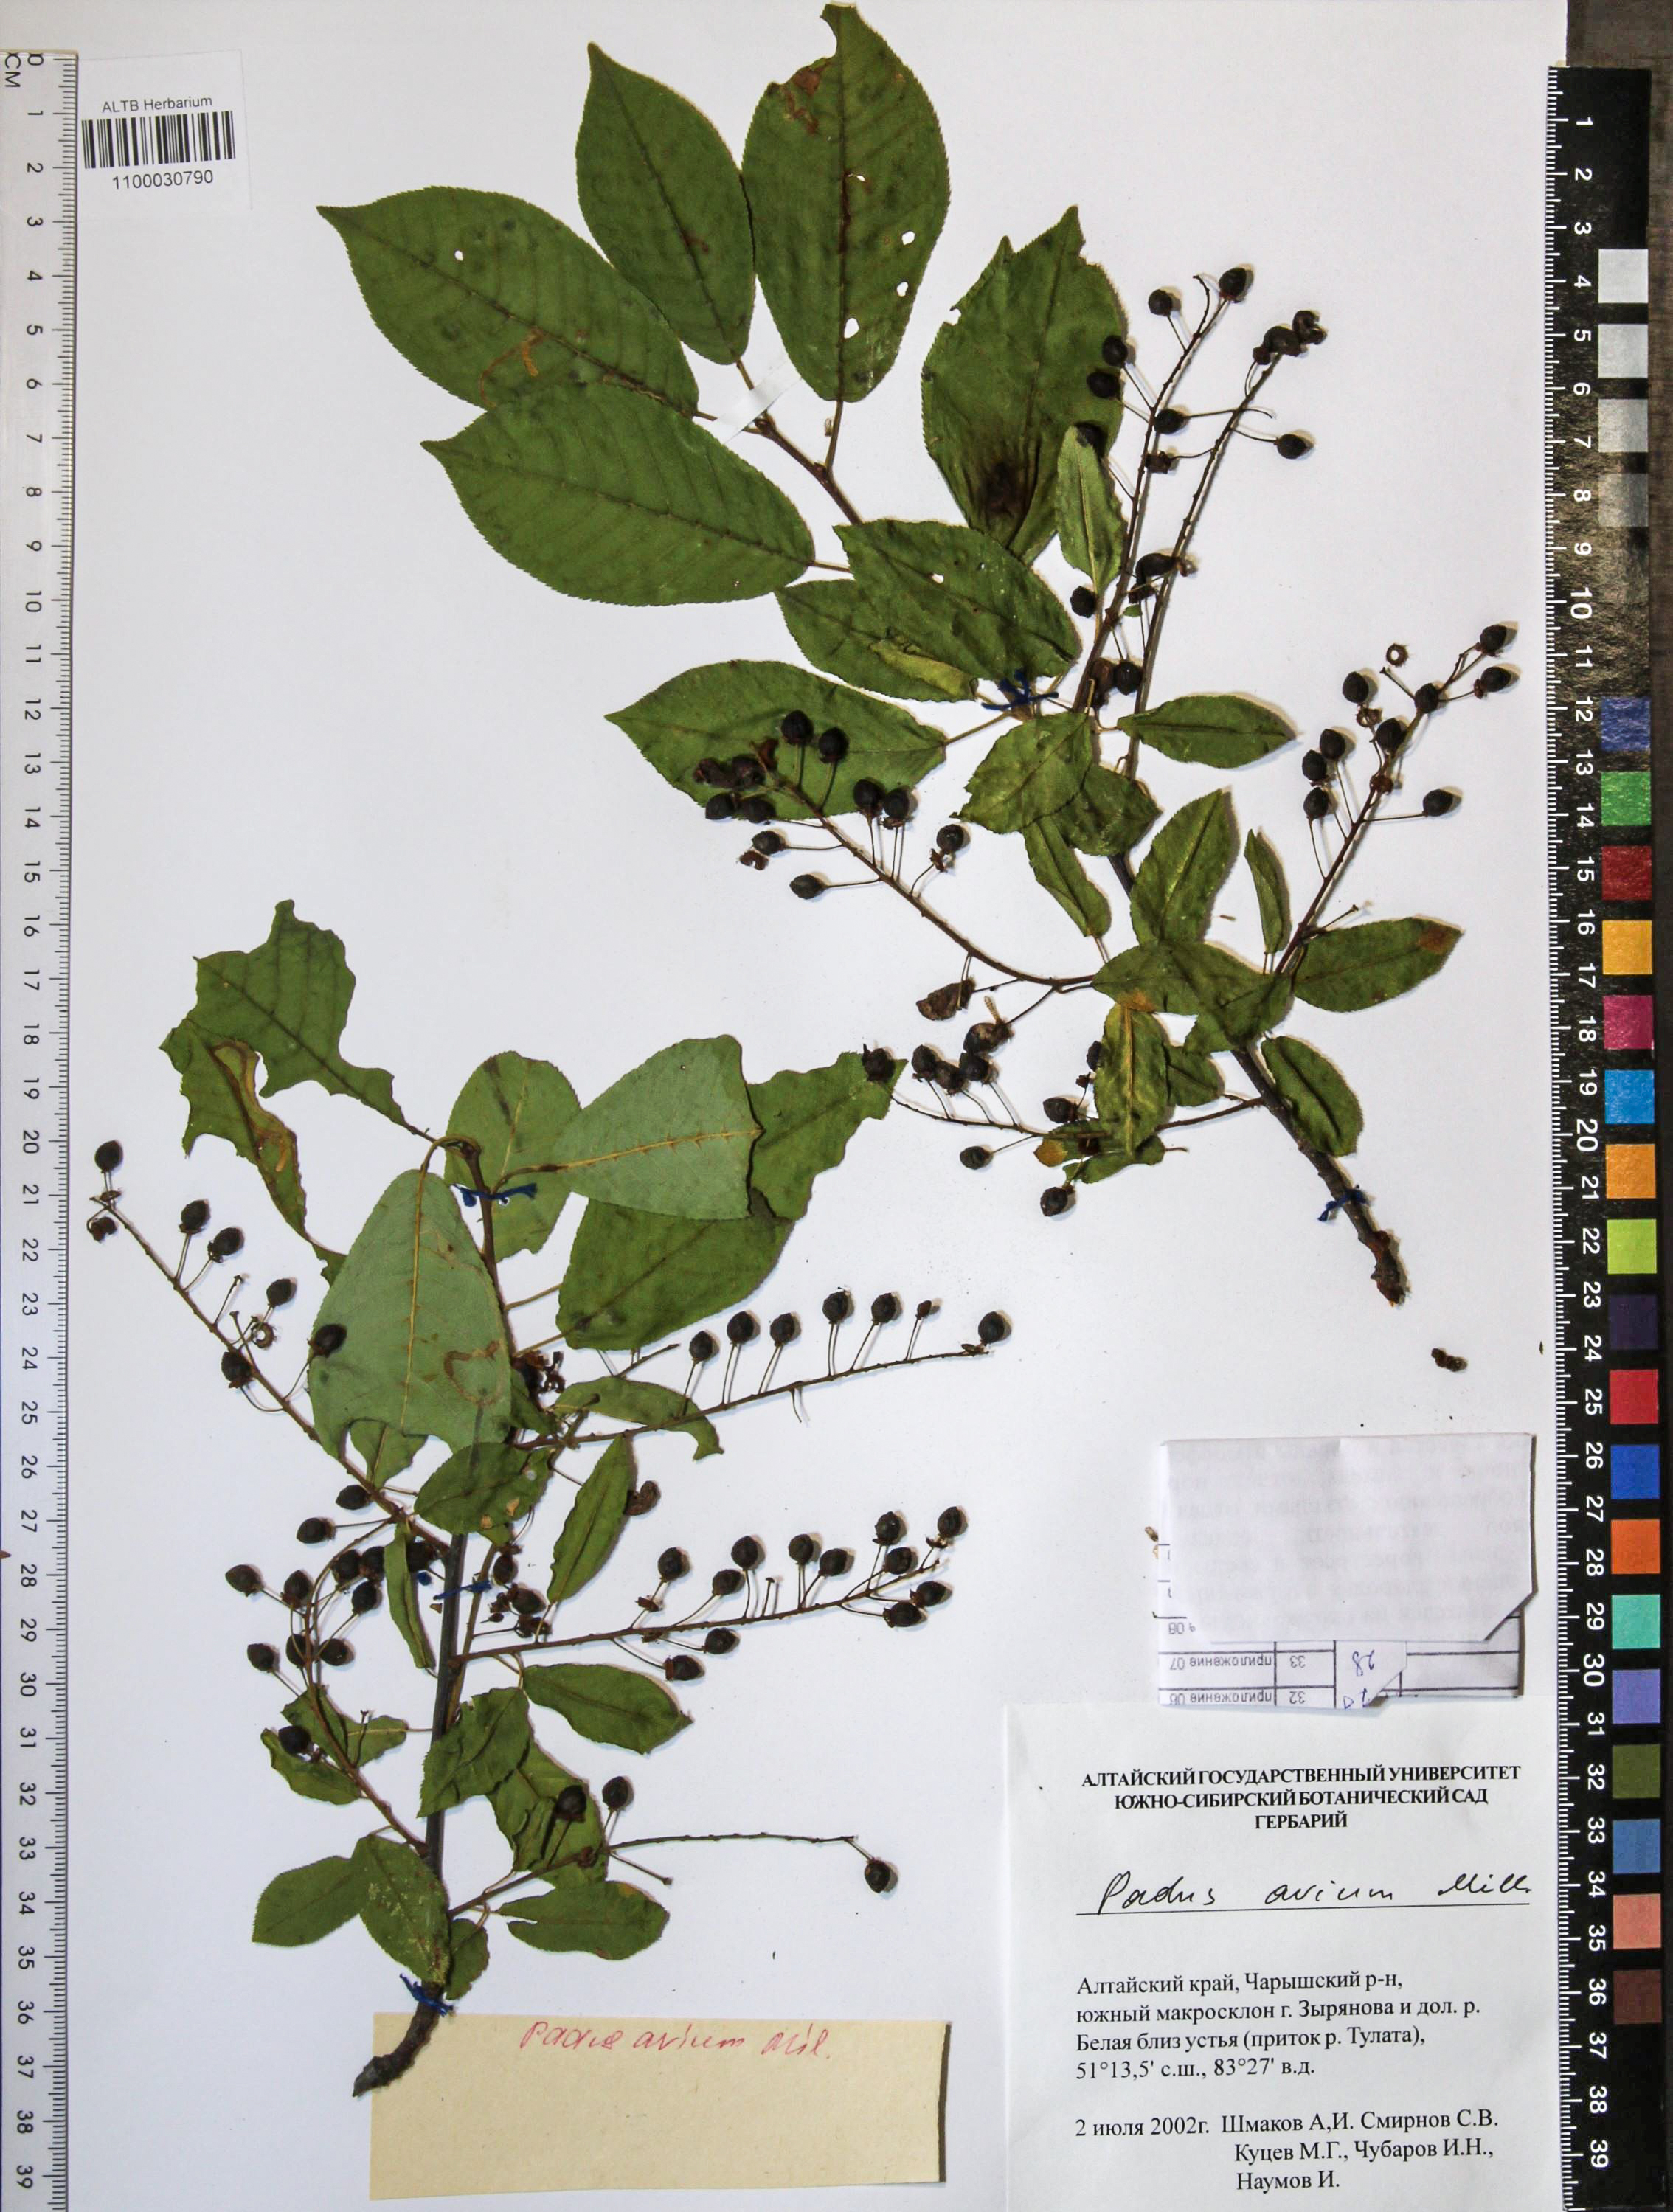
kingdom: Plantae
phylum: Tracheophyta
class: Magnoliopsida
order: Rosales
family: Rosaceae
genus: Prunus
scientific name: Prunus padus
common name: Bird cherry
